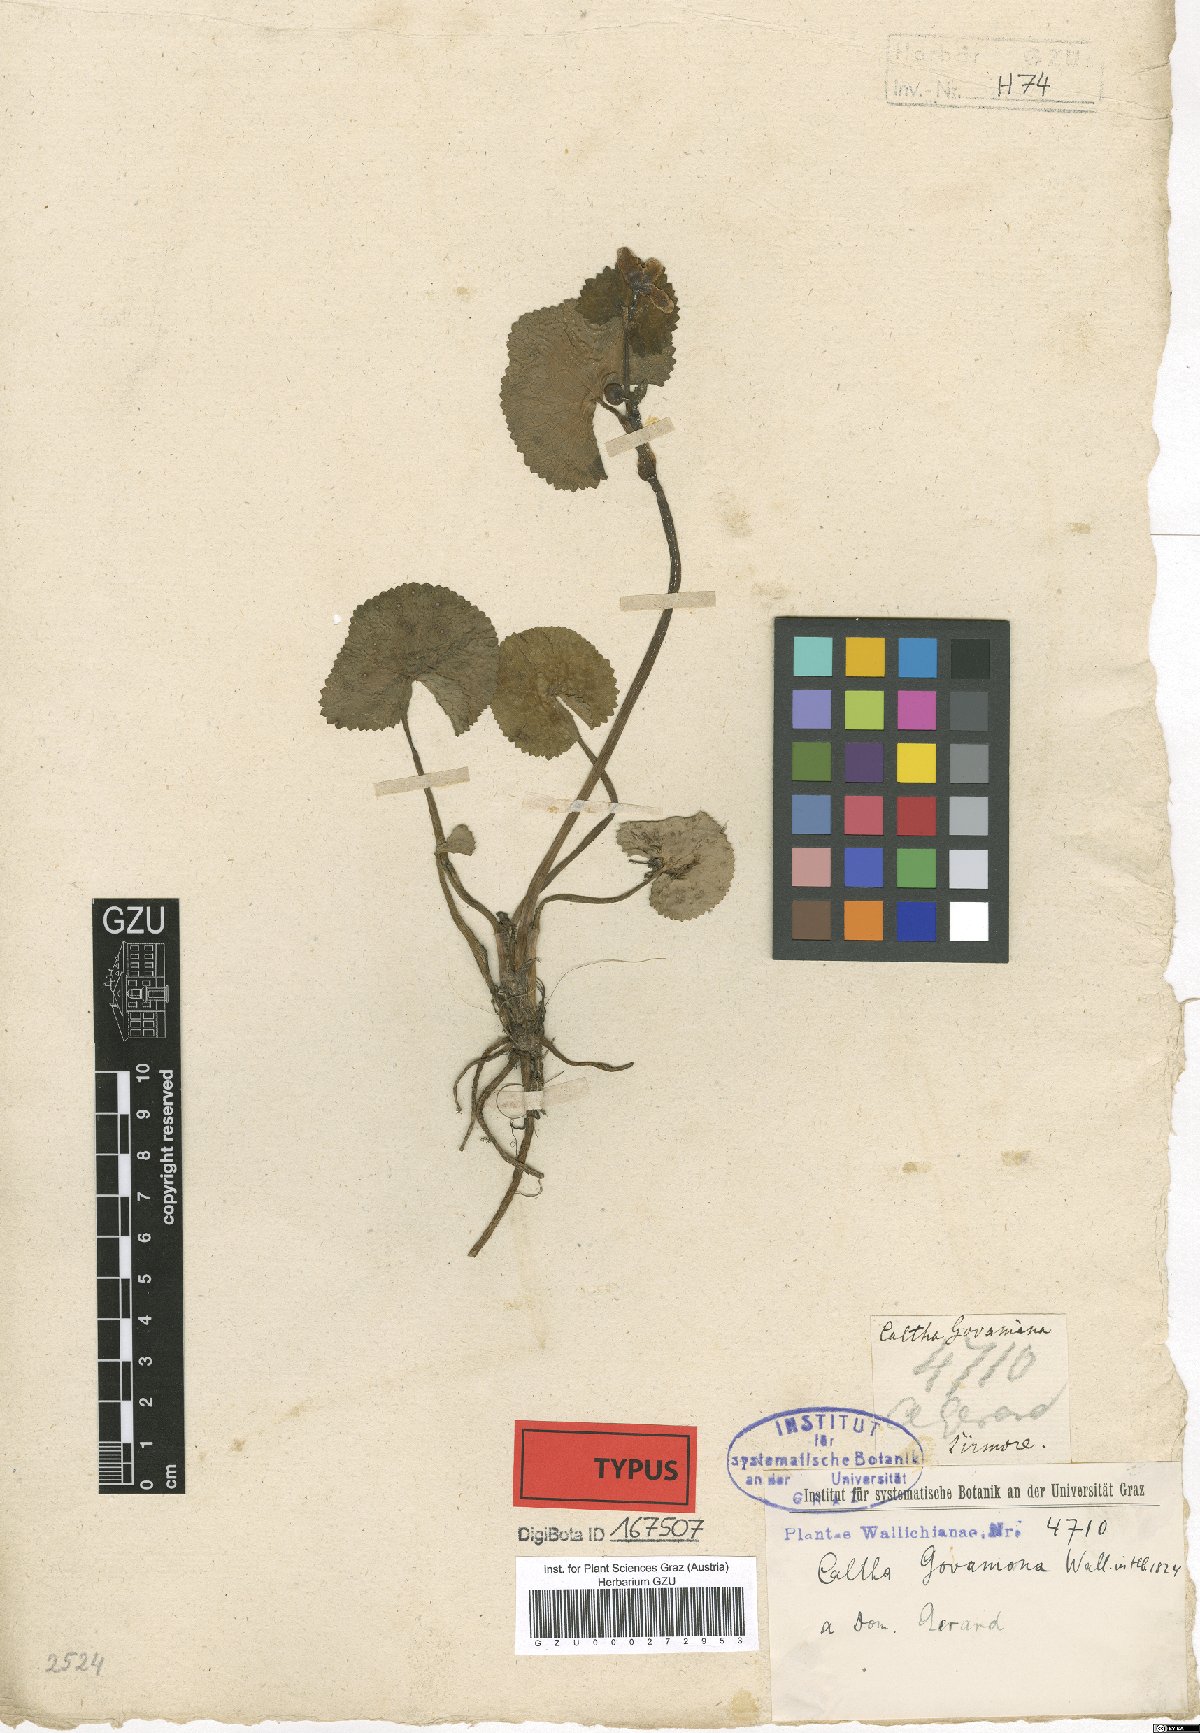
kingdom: Plantae
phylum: Tracheophyta
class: Magnoliopsida
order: Ranunculales
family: Ranunculaceae
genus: Caltha
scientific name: Caltha alba
